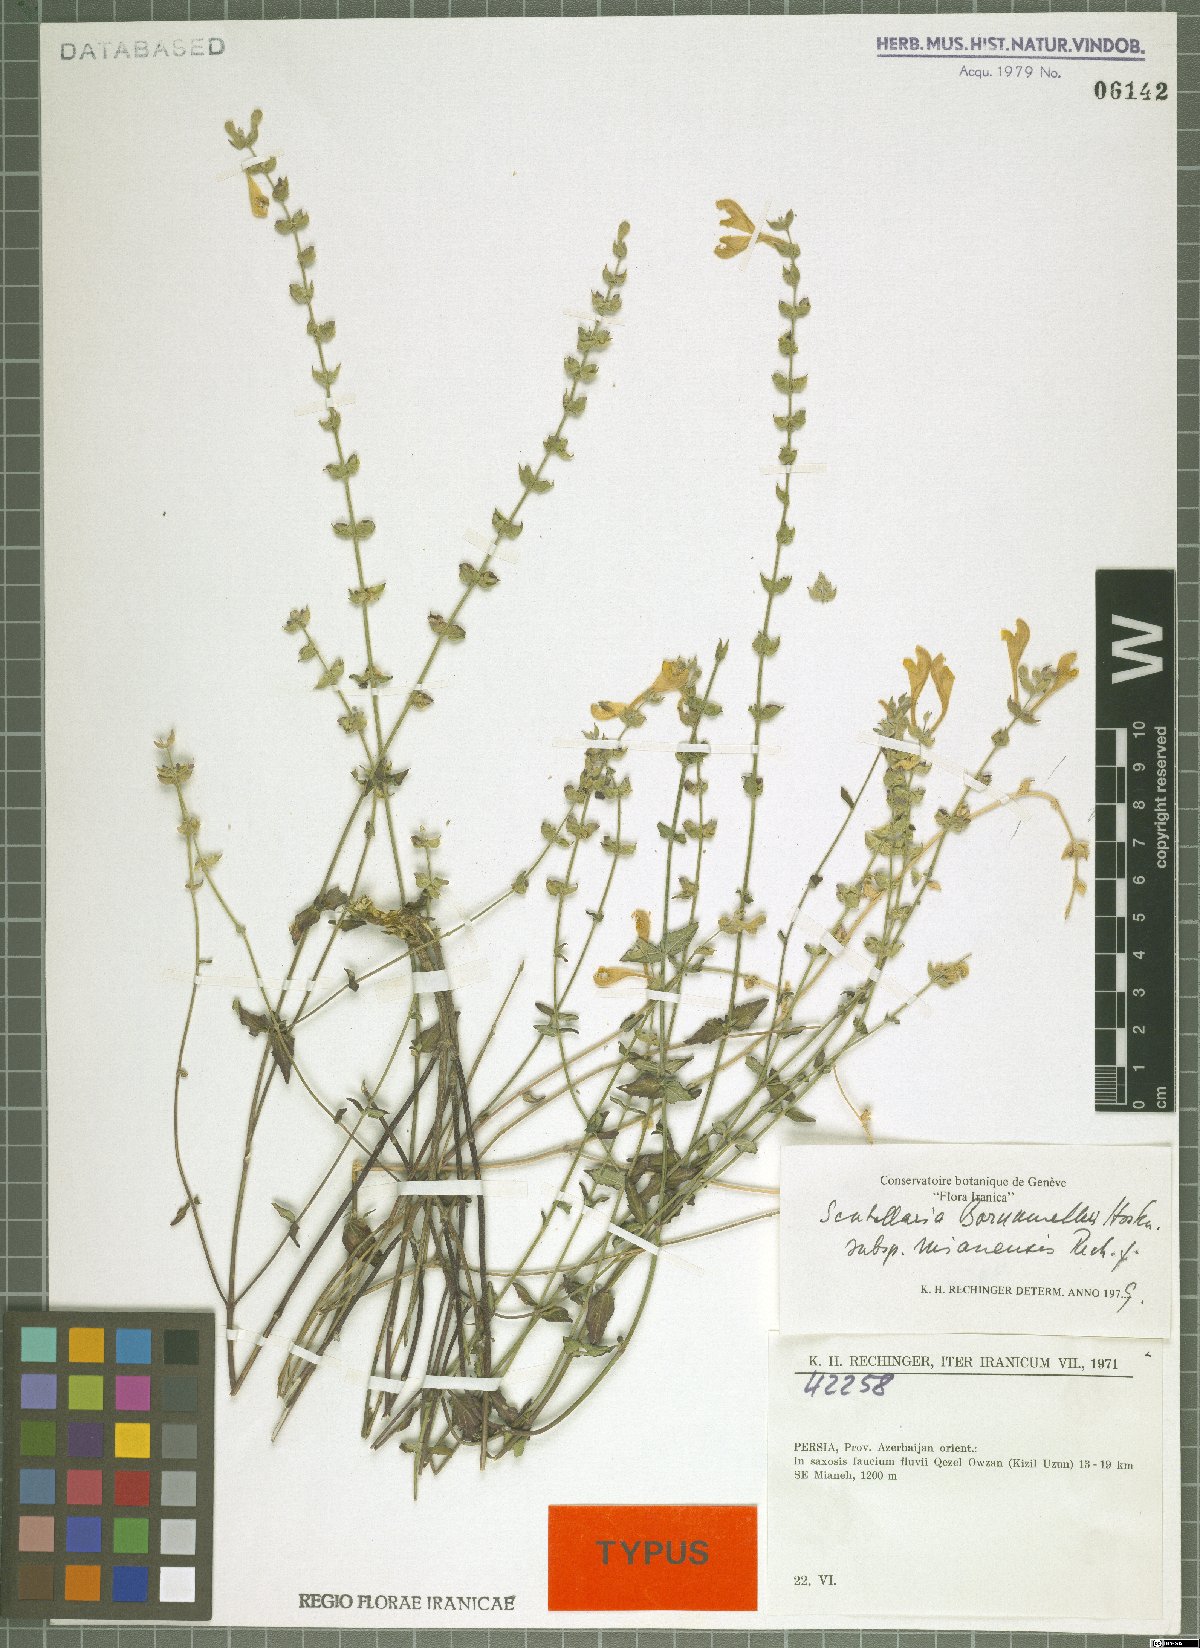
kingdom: Plantae
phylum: Tracheophyta
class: Magnoliopsida
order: Lamiales
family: Lamiaceae
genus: Scutellaria
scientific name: Scutellaria bornmuelleri
